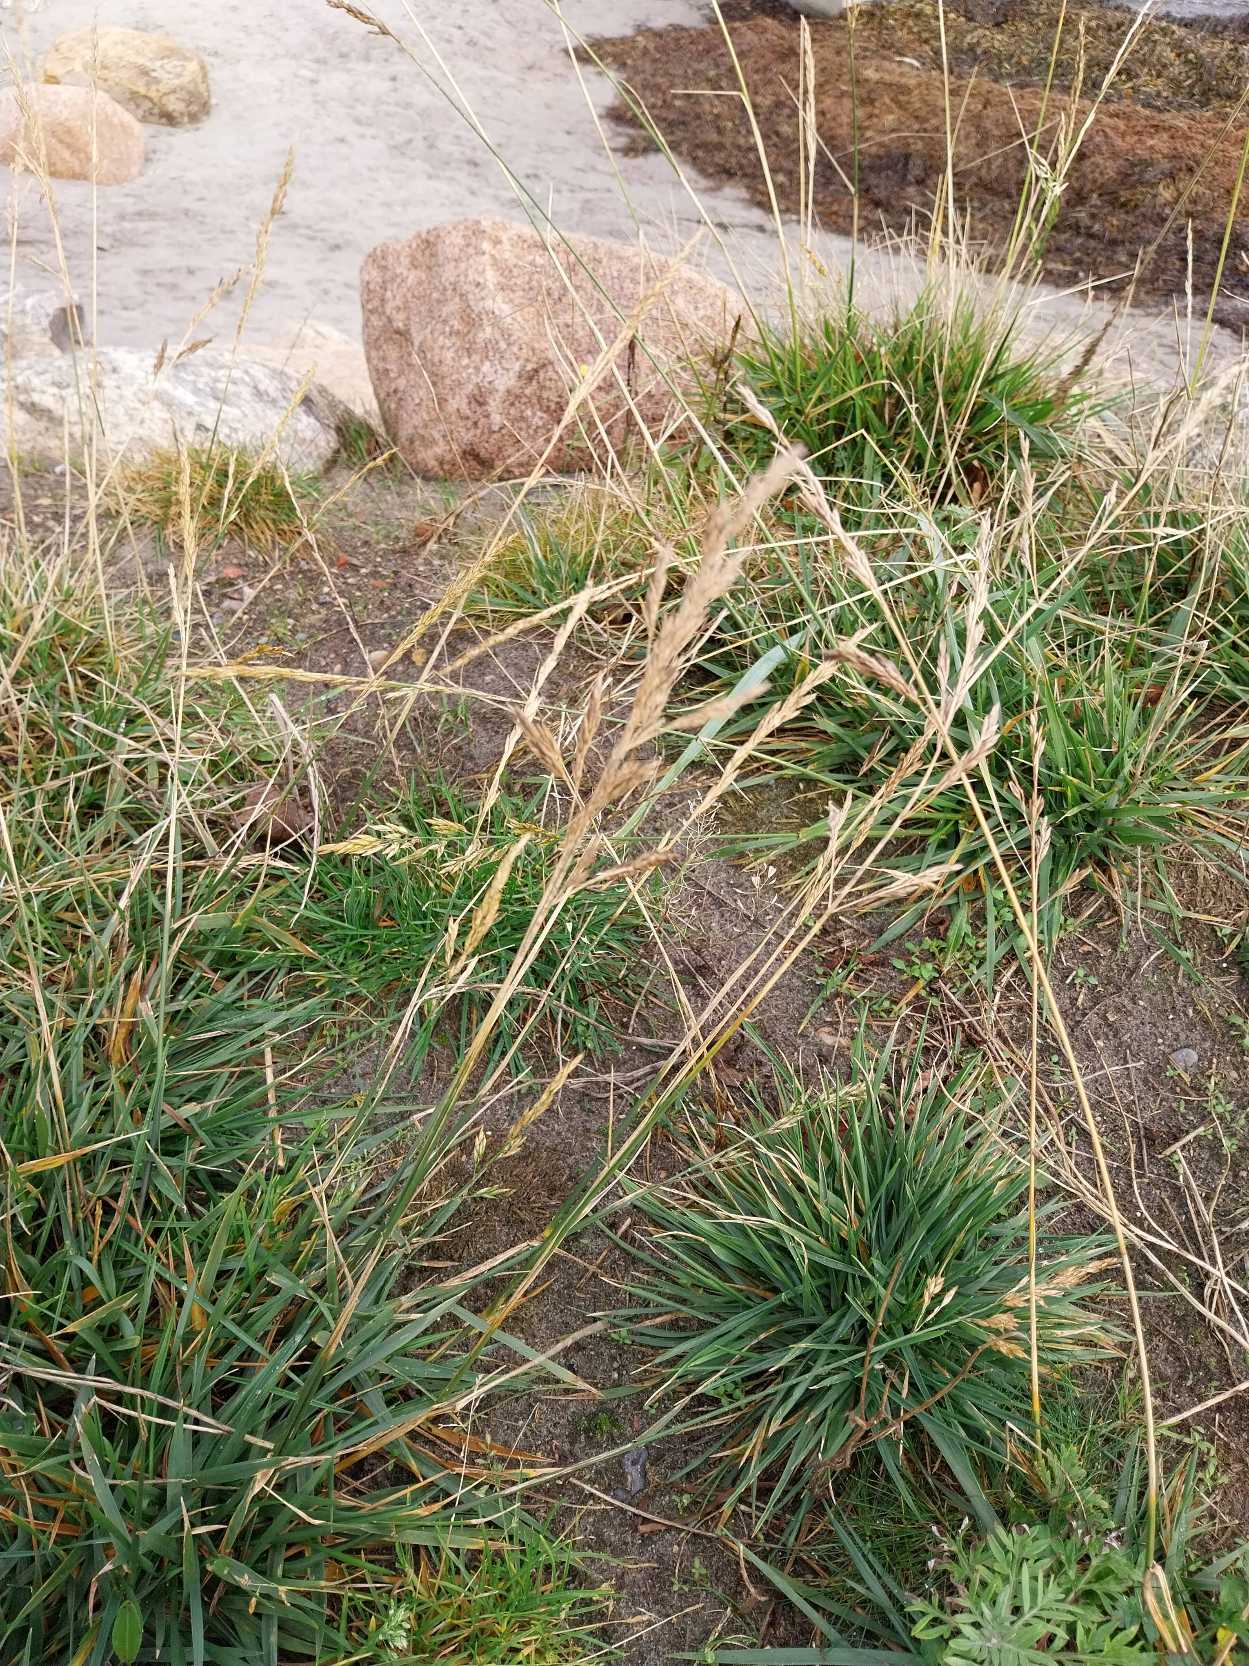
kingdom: Plantae
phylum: Tracheophyta
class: Liliopsida
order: Poales
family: Poaceae
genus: Lolium
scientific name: Lolium arundinaceum
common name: Strand-svingel
